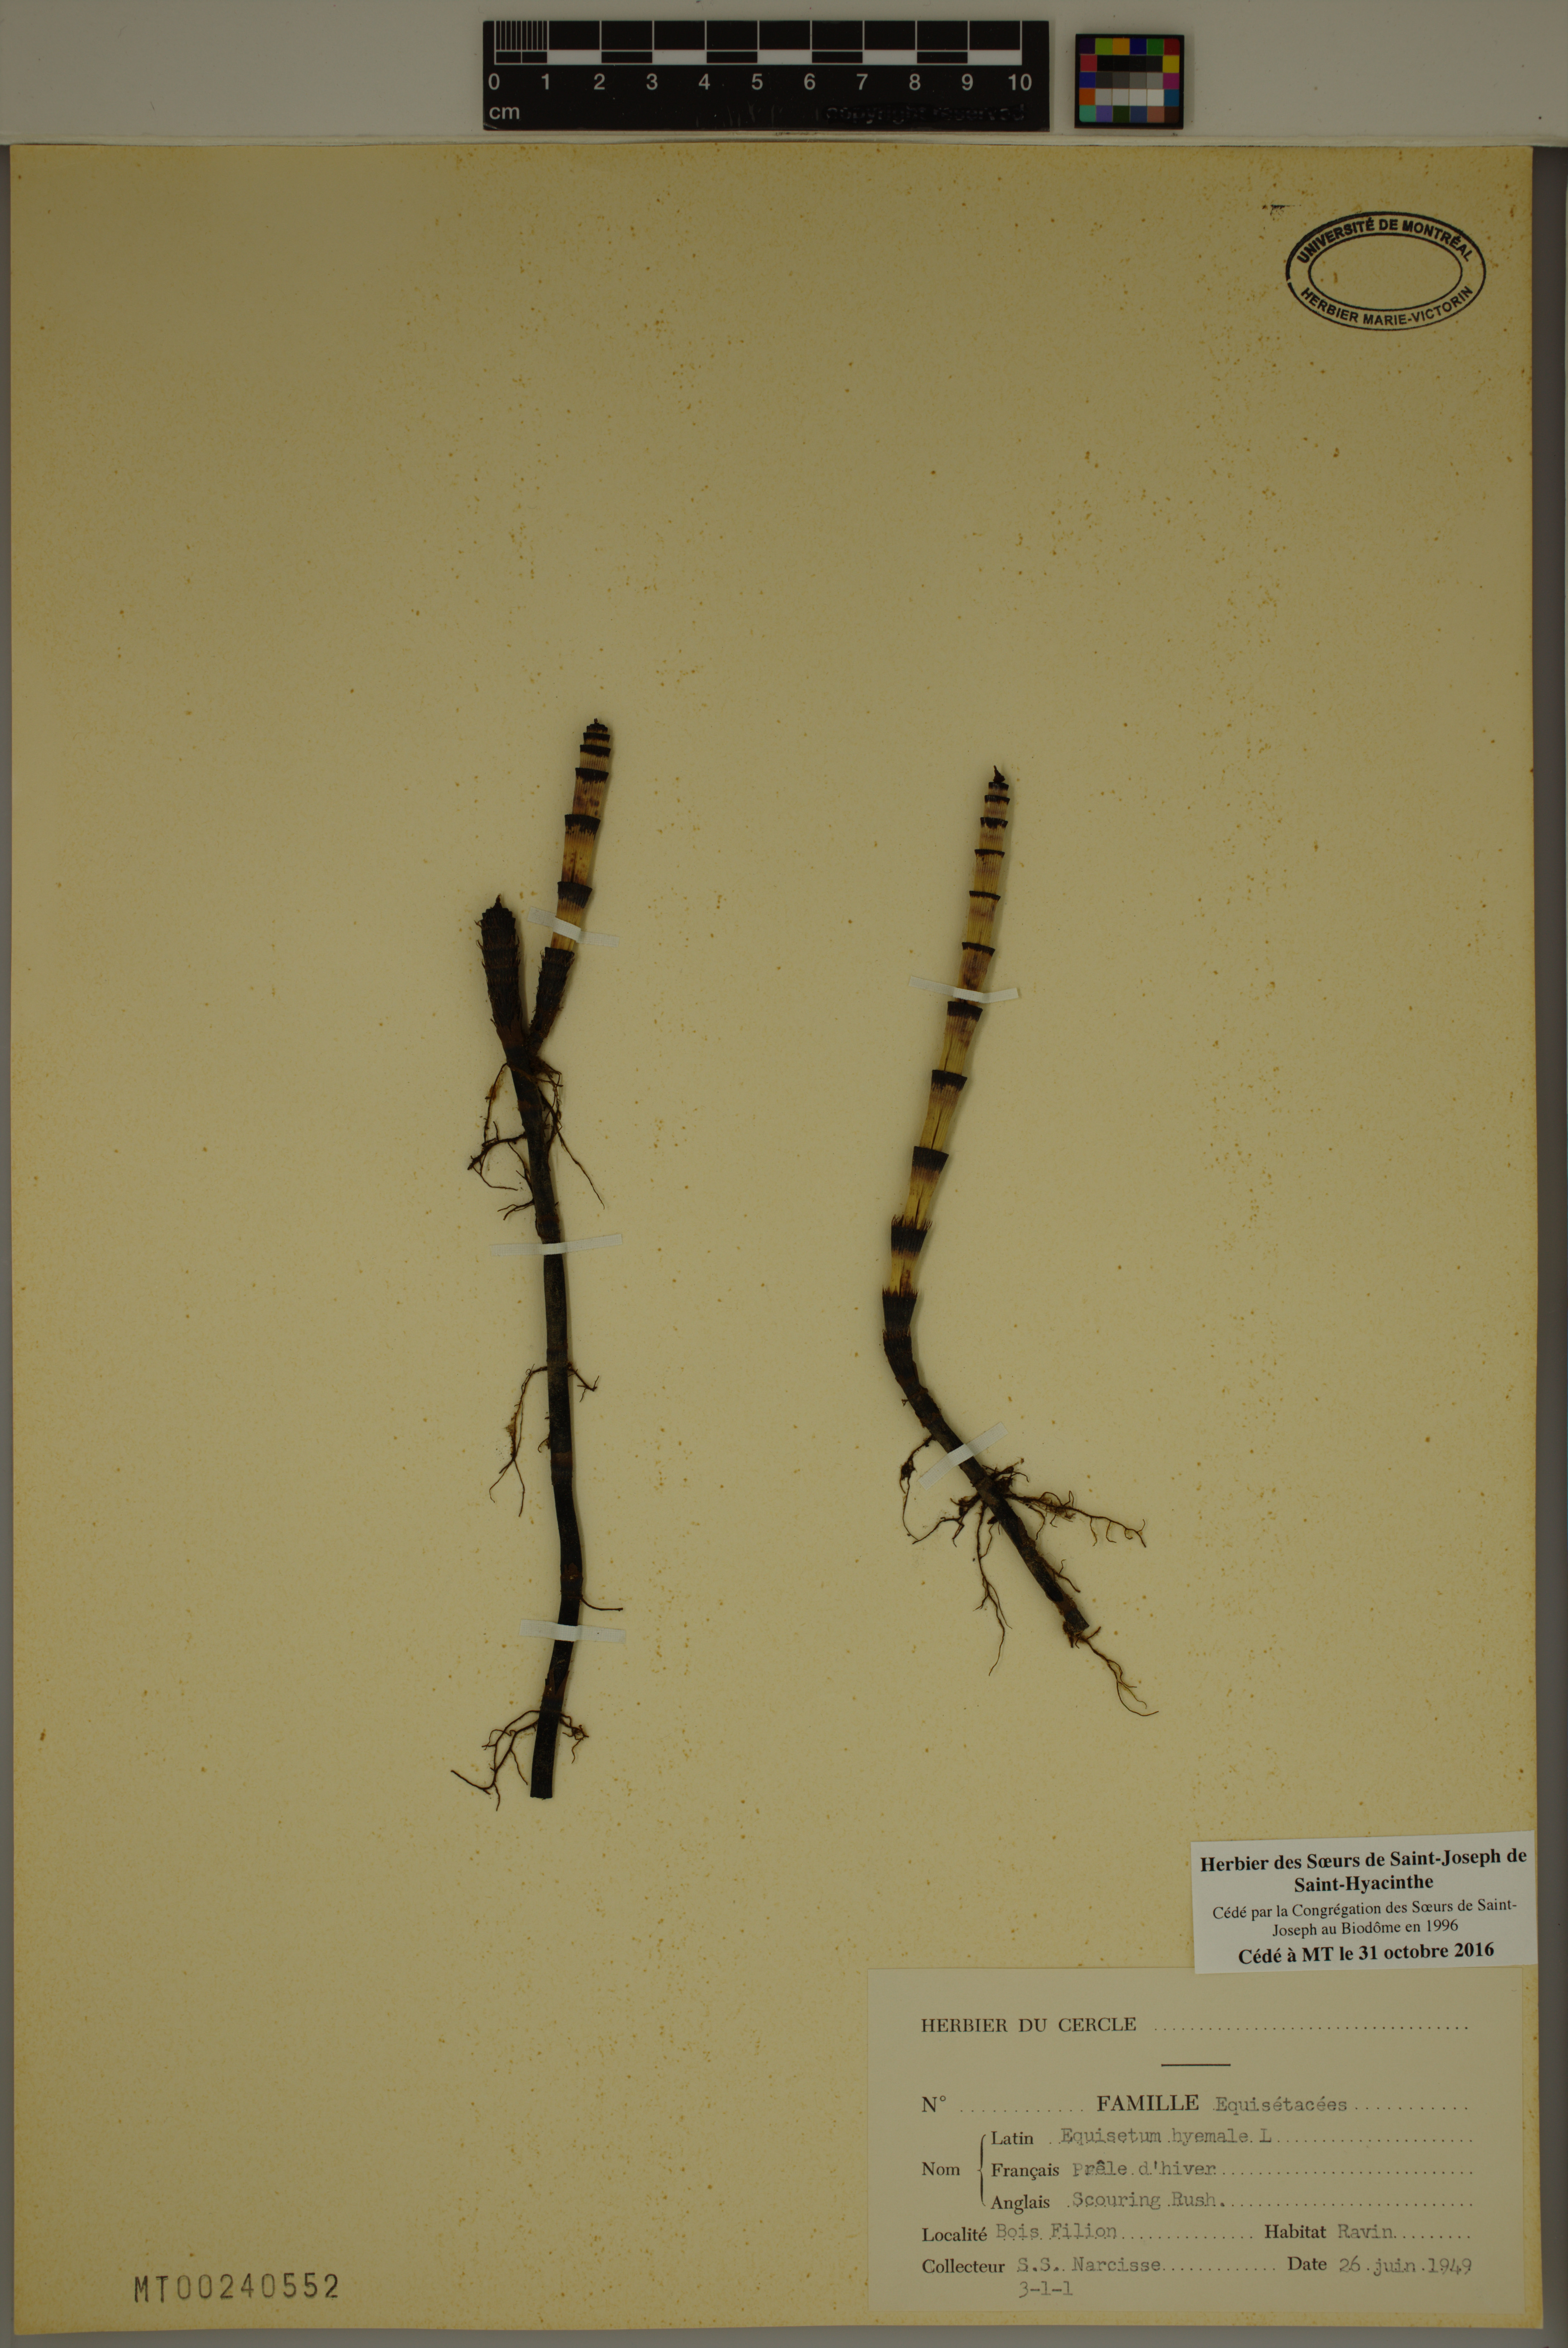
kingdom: Plantae
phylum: Tracheophyta
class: Polypodiopsida
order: Equisetales
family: Equisetaceae
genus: Equisetum
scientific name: Equisetum hyemale
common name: Rough horsetail
